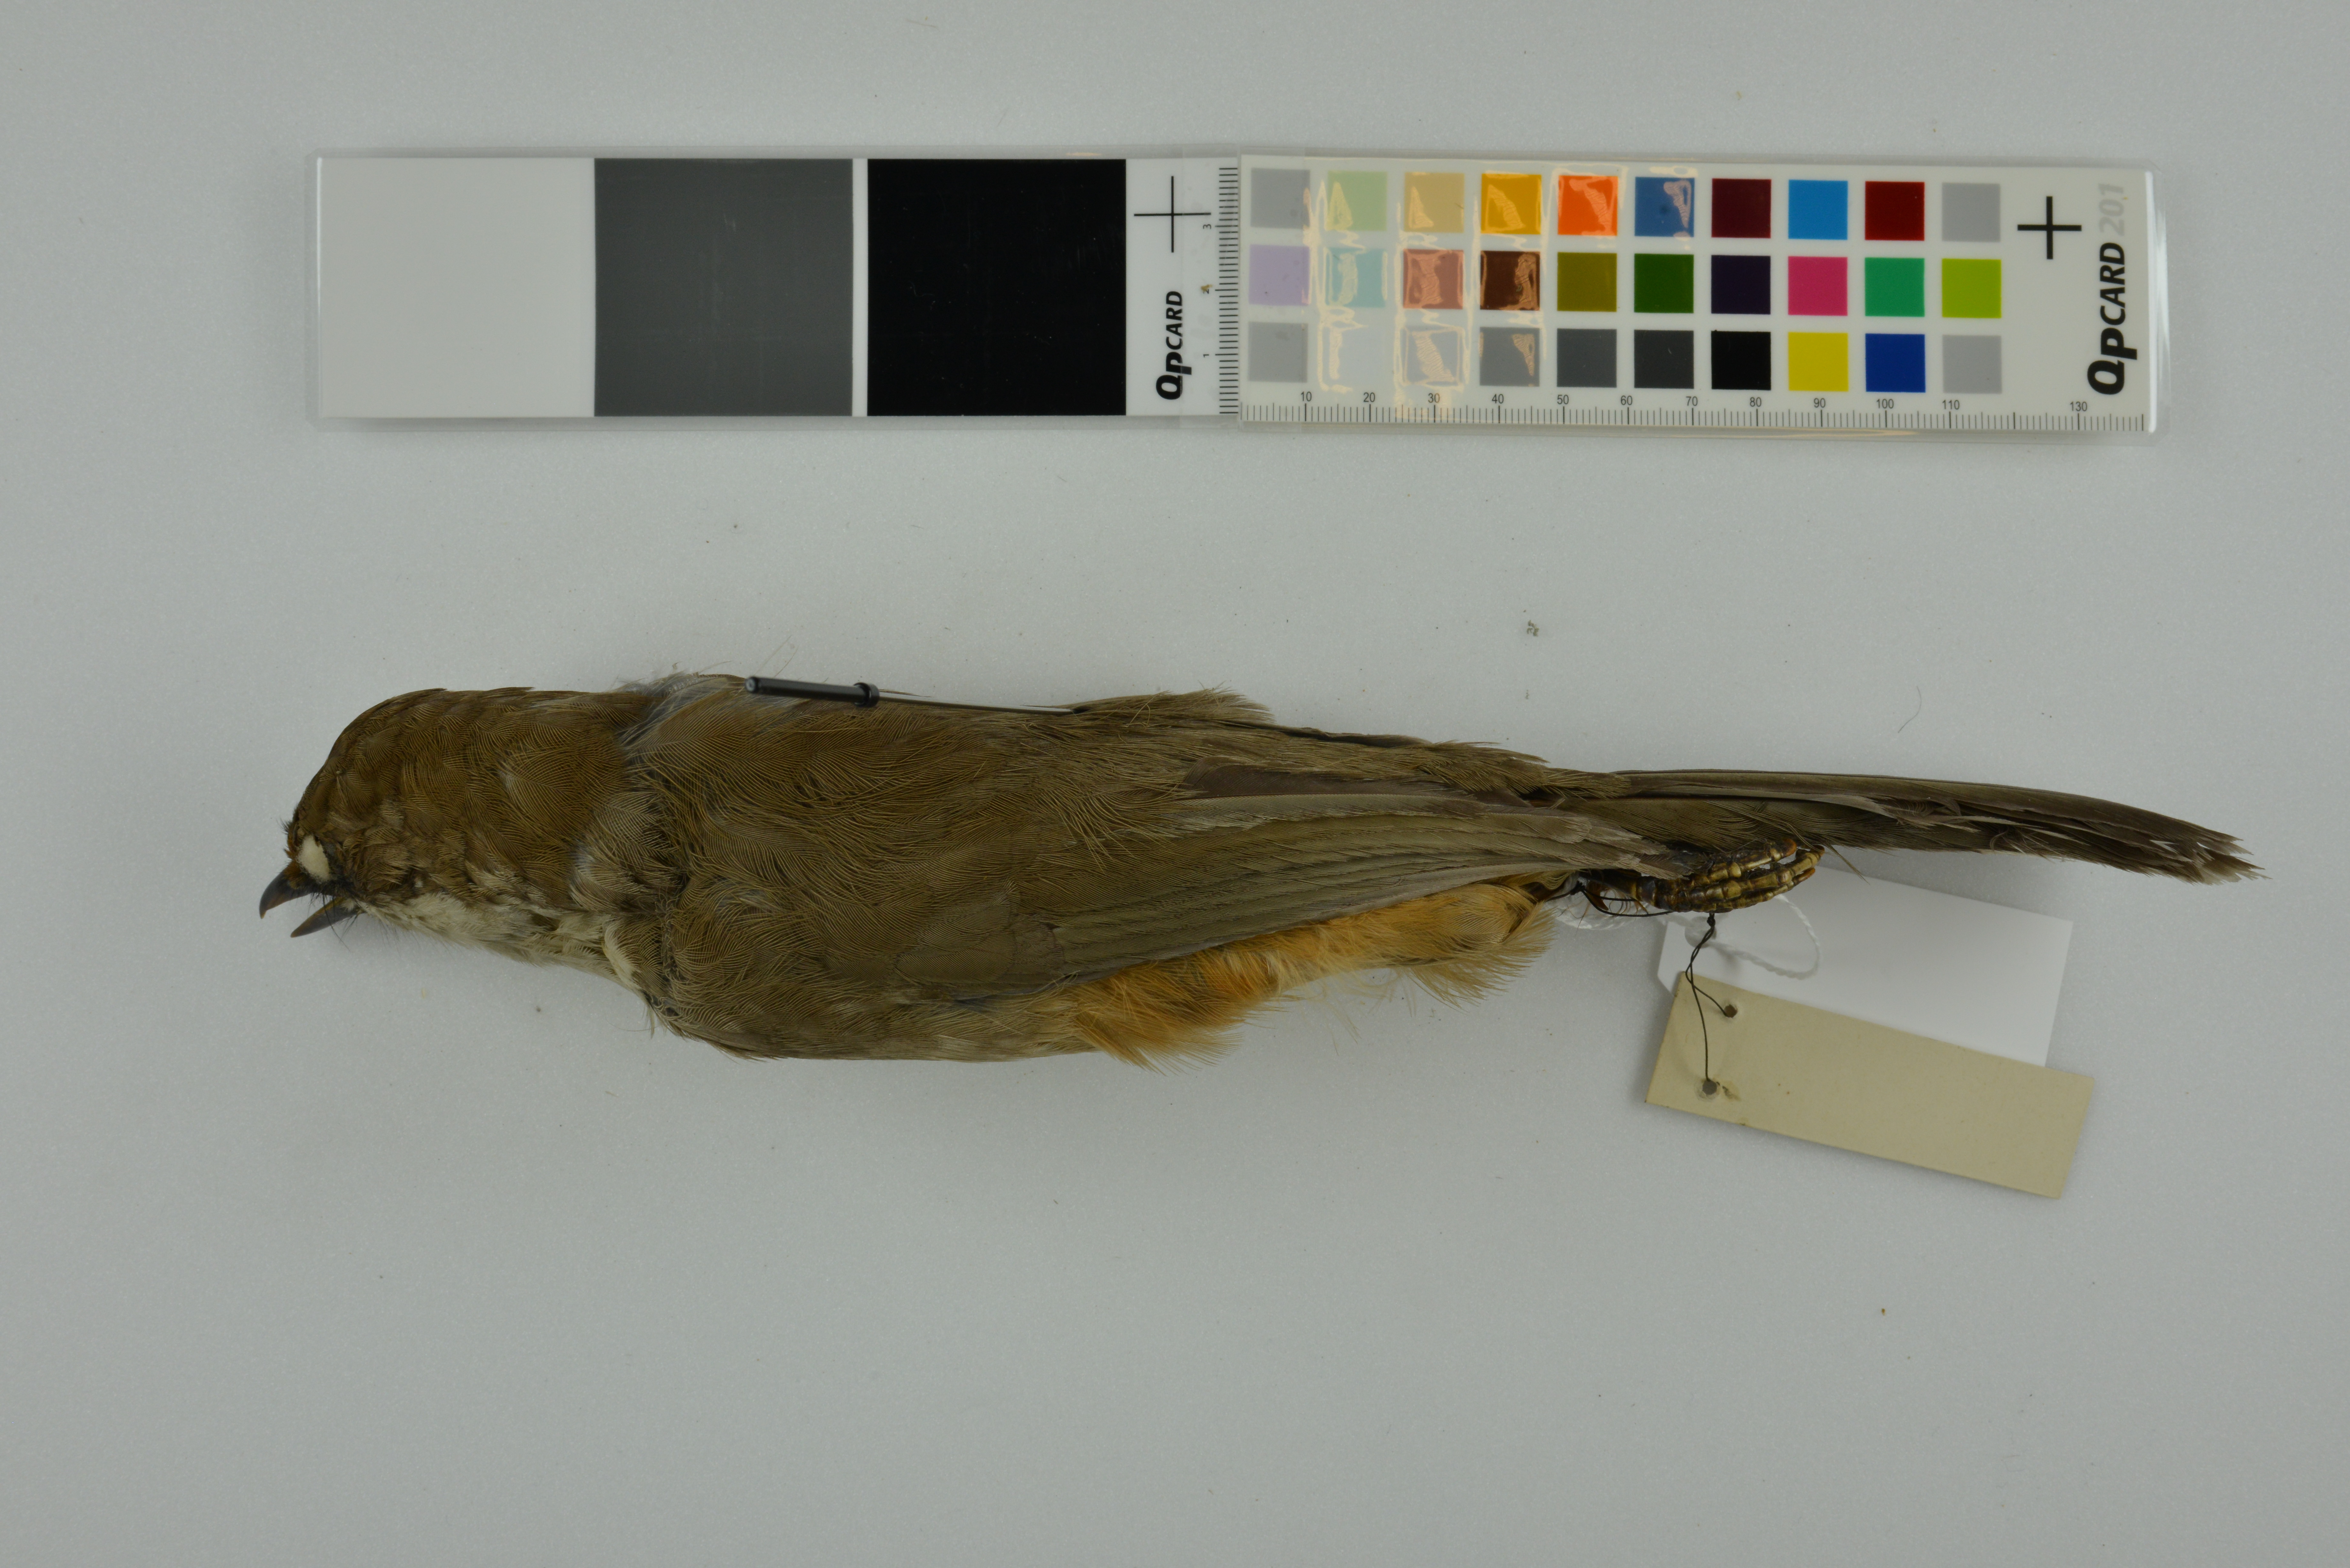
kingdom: Animalia
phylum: Chordata
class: Aves
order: Passeriformes
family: Leiothrichidae
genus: Garrulax
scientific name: Garrulax albogularis
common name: White-throated laughingthrush
